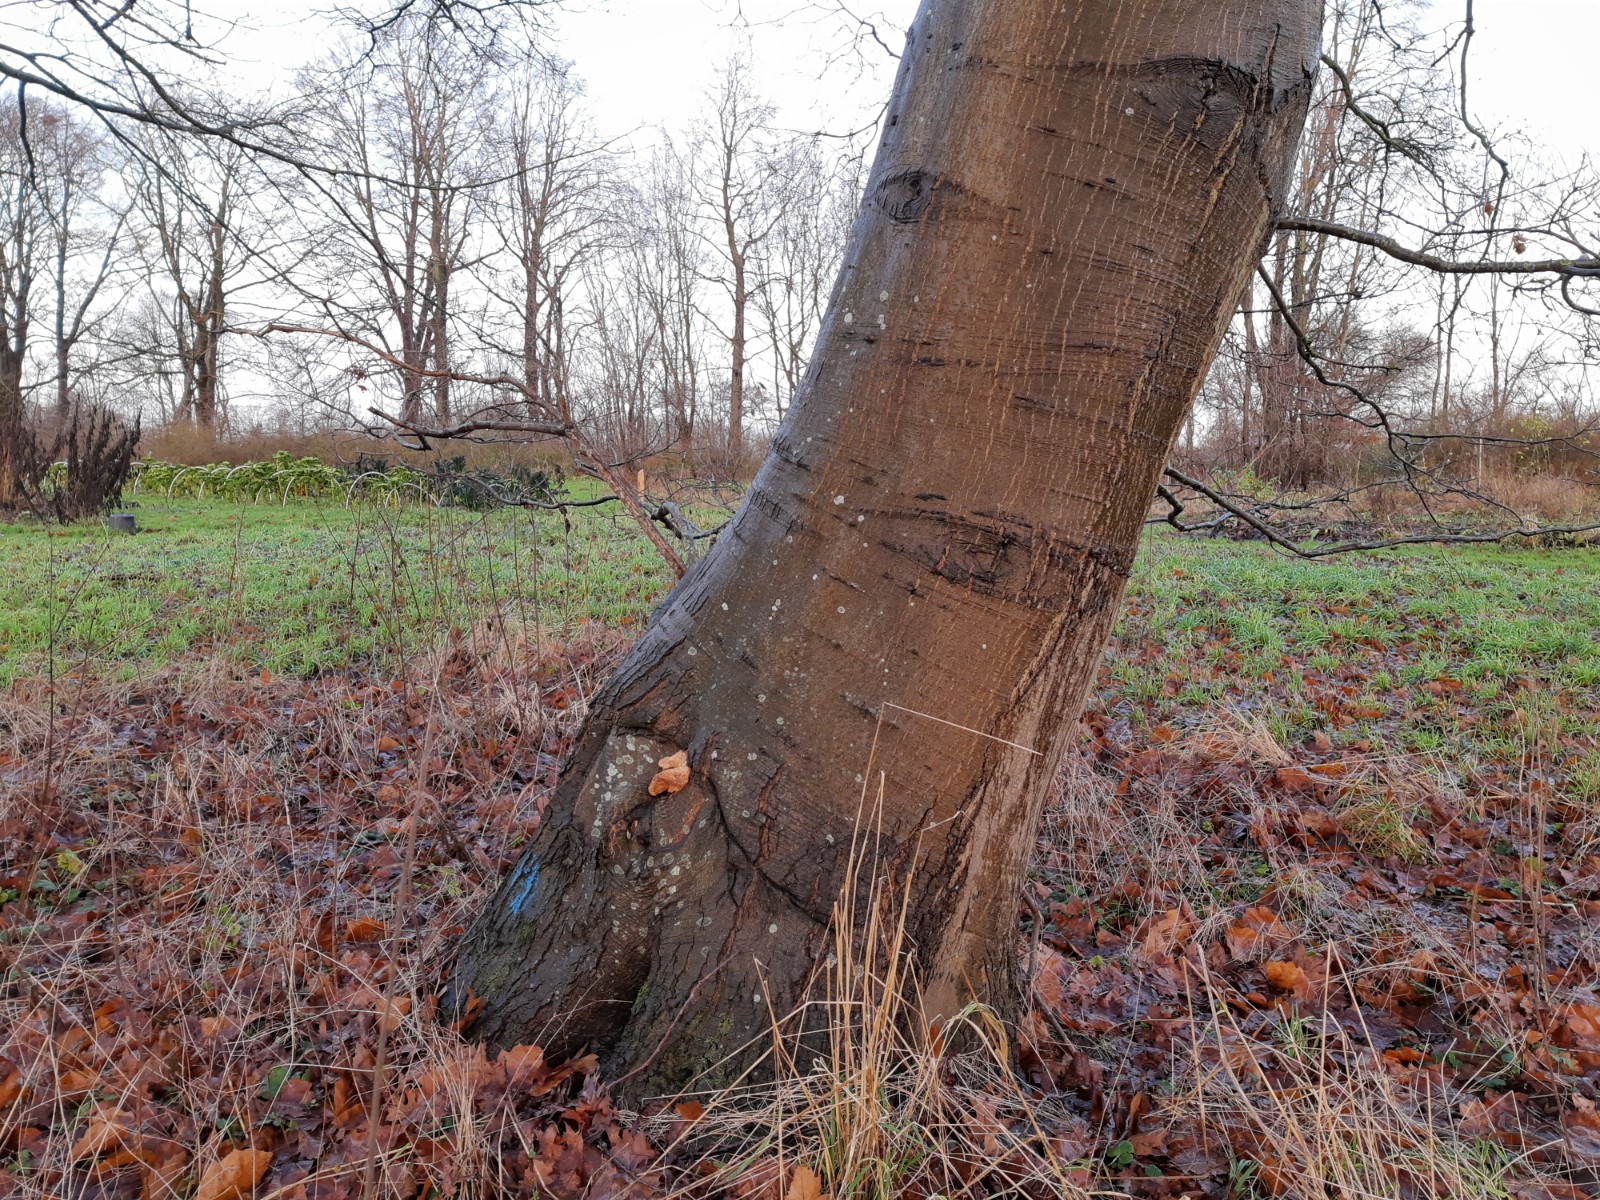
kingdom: Fungi
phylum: Basidiomycota
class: Agaricomycetes
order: Polyporales
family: Fomitopsidaceae
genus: Daedalea
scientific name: Daedalea quercina
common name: ege-labyrintsvamp
